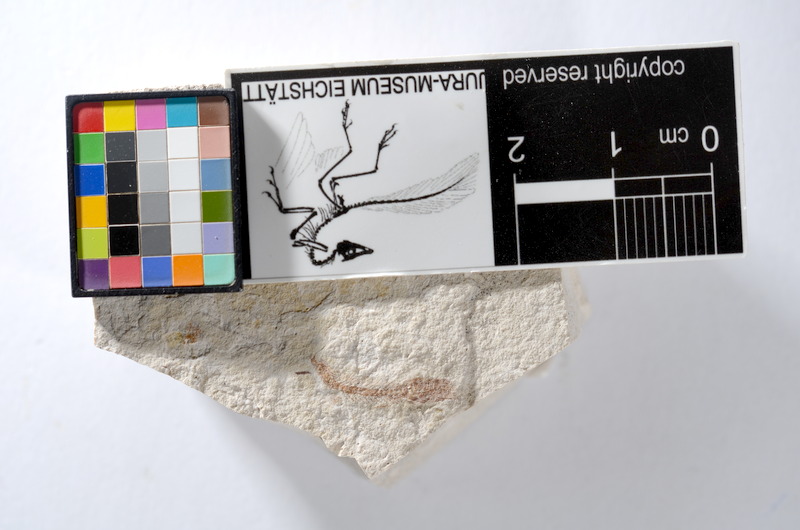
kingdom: Animalia
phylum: Chordata
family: Ascalaboidae
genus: Tharsis
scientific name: Tharsis dubius
